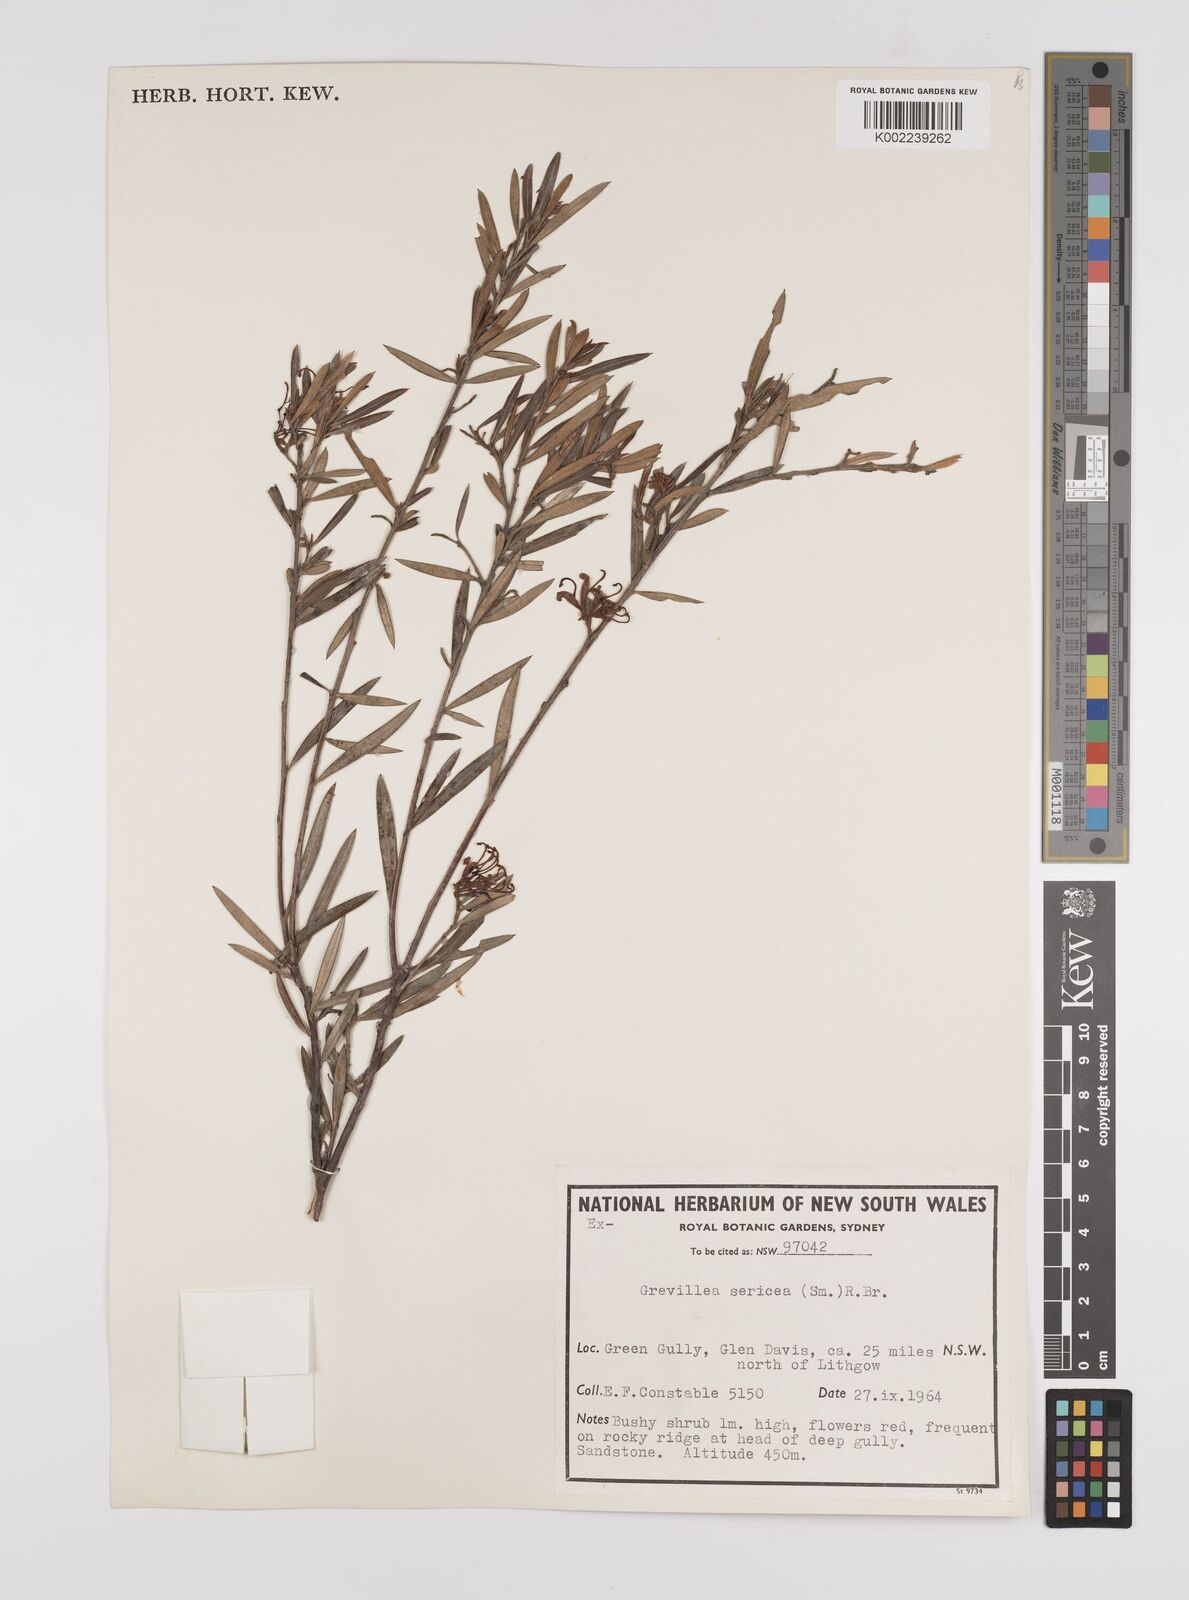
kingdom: Plantae
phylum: Tracheophyta
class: Magnoliopsida
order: Proteales
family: Proteaceae
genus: Grevillea
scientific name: Grevillea sericea
